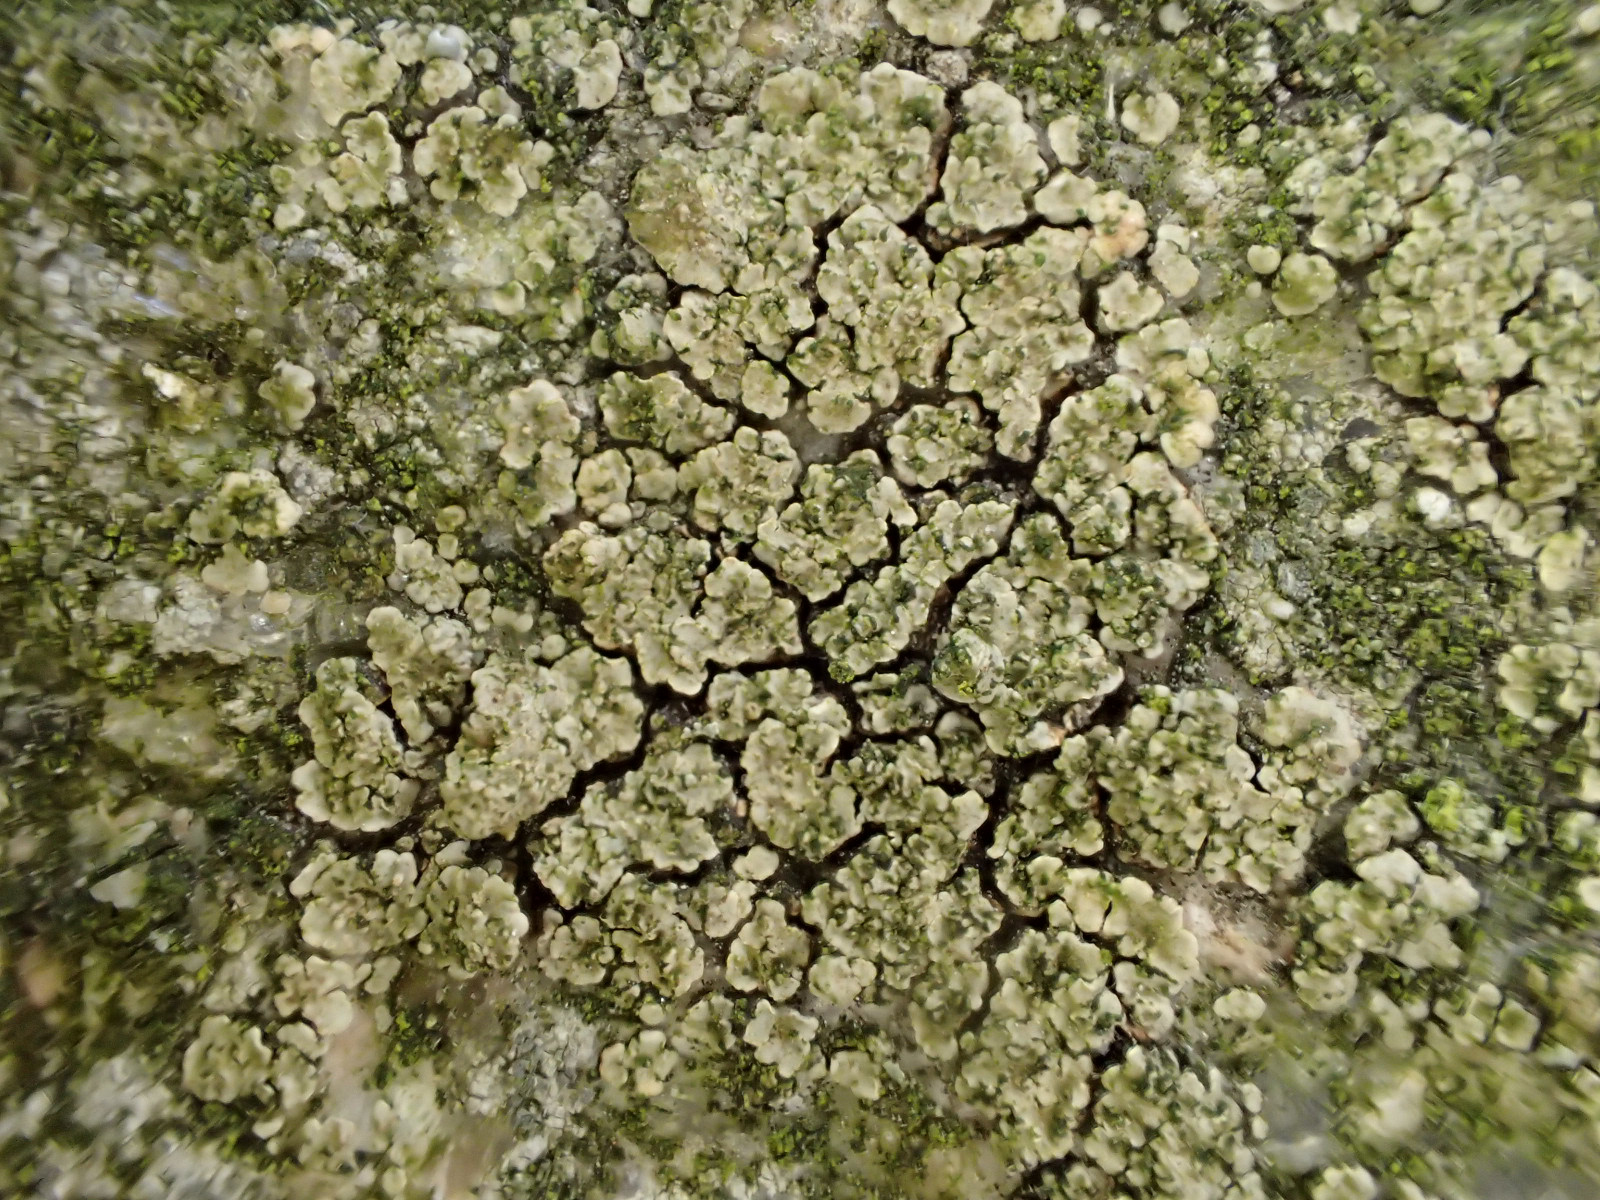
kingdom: Fungi
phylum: Ascomycota
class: Lecanoromycetes
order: Acarosporales
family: Acarosporaceae
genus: Acarospora
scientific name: Acarospora fuscata
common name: brun småsporelav
